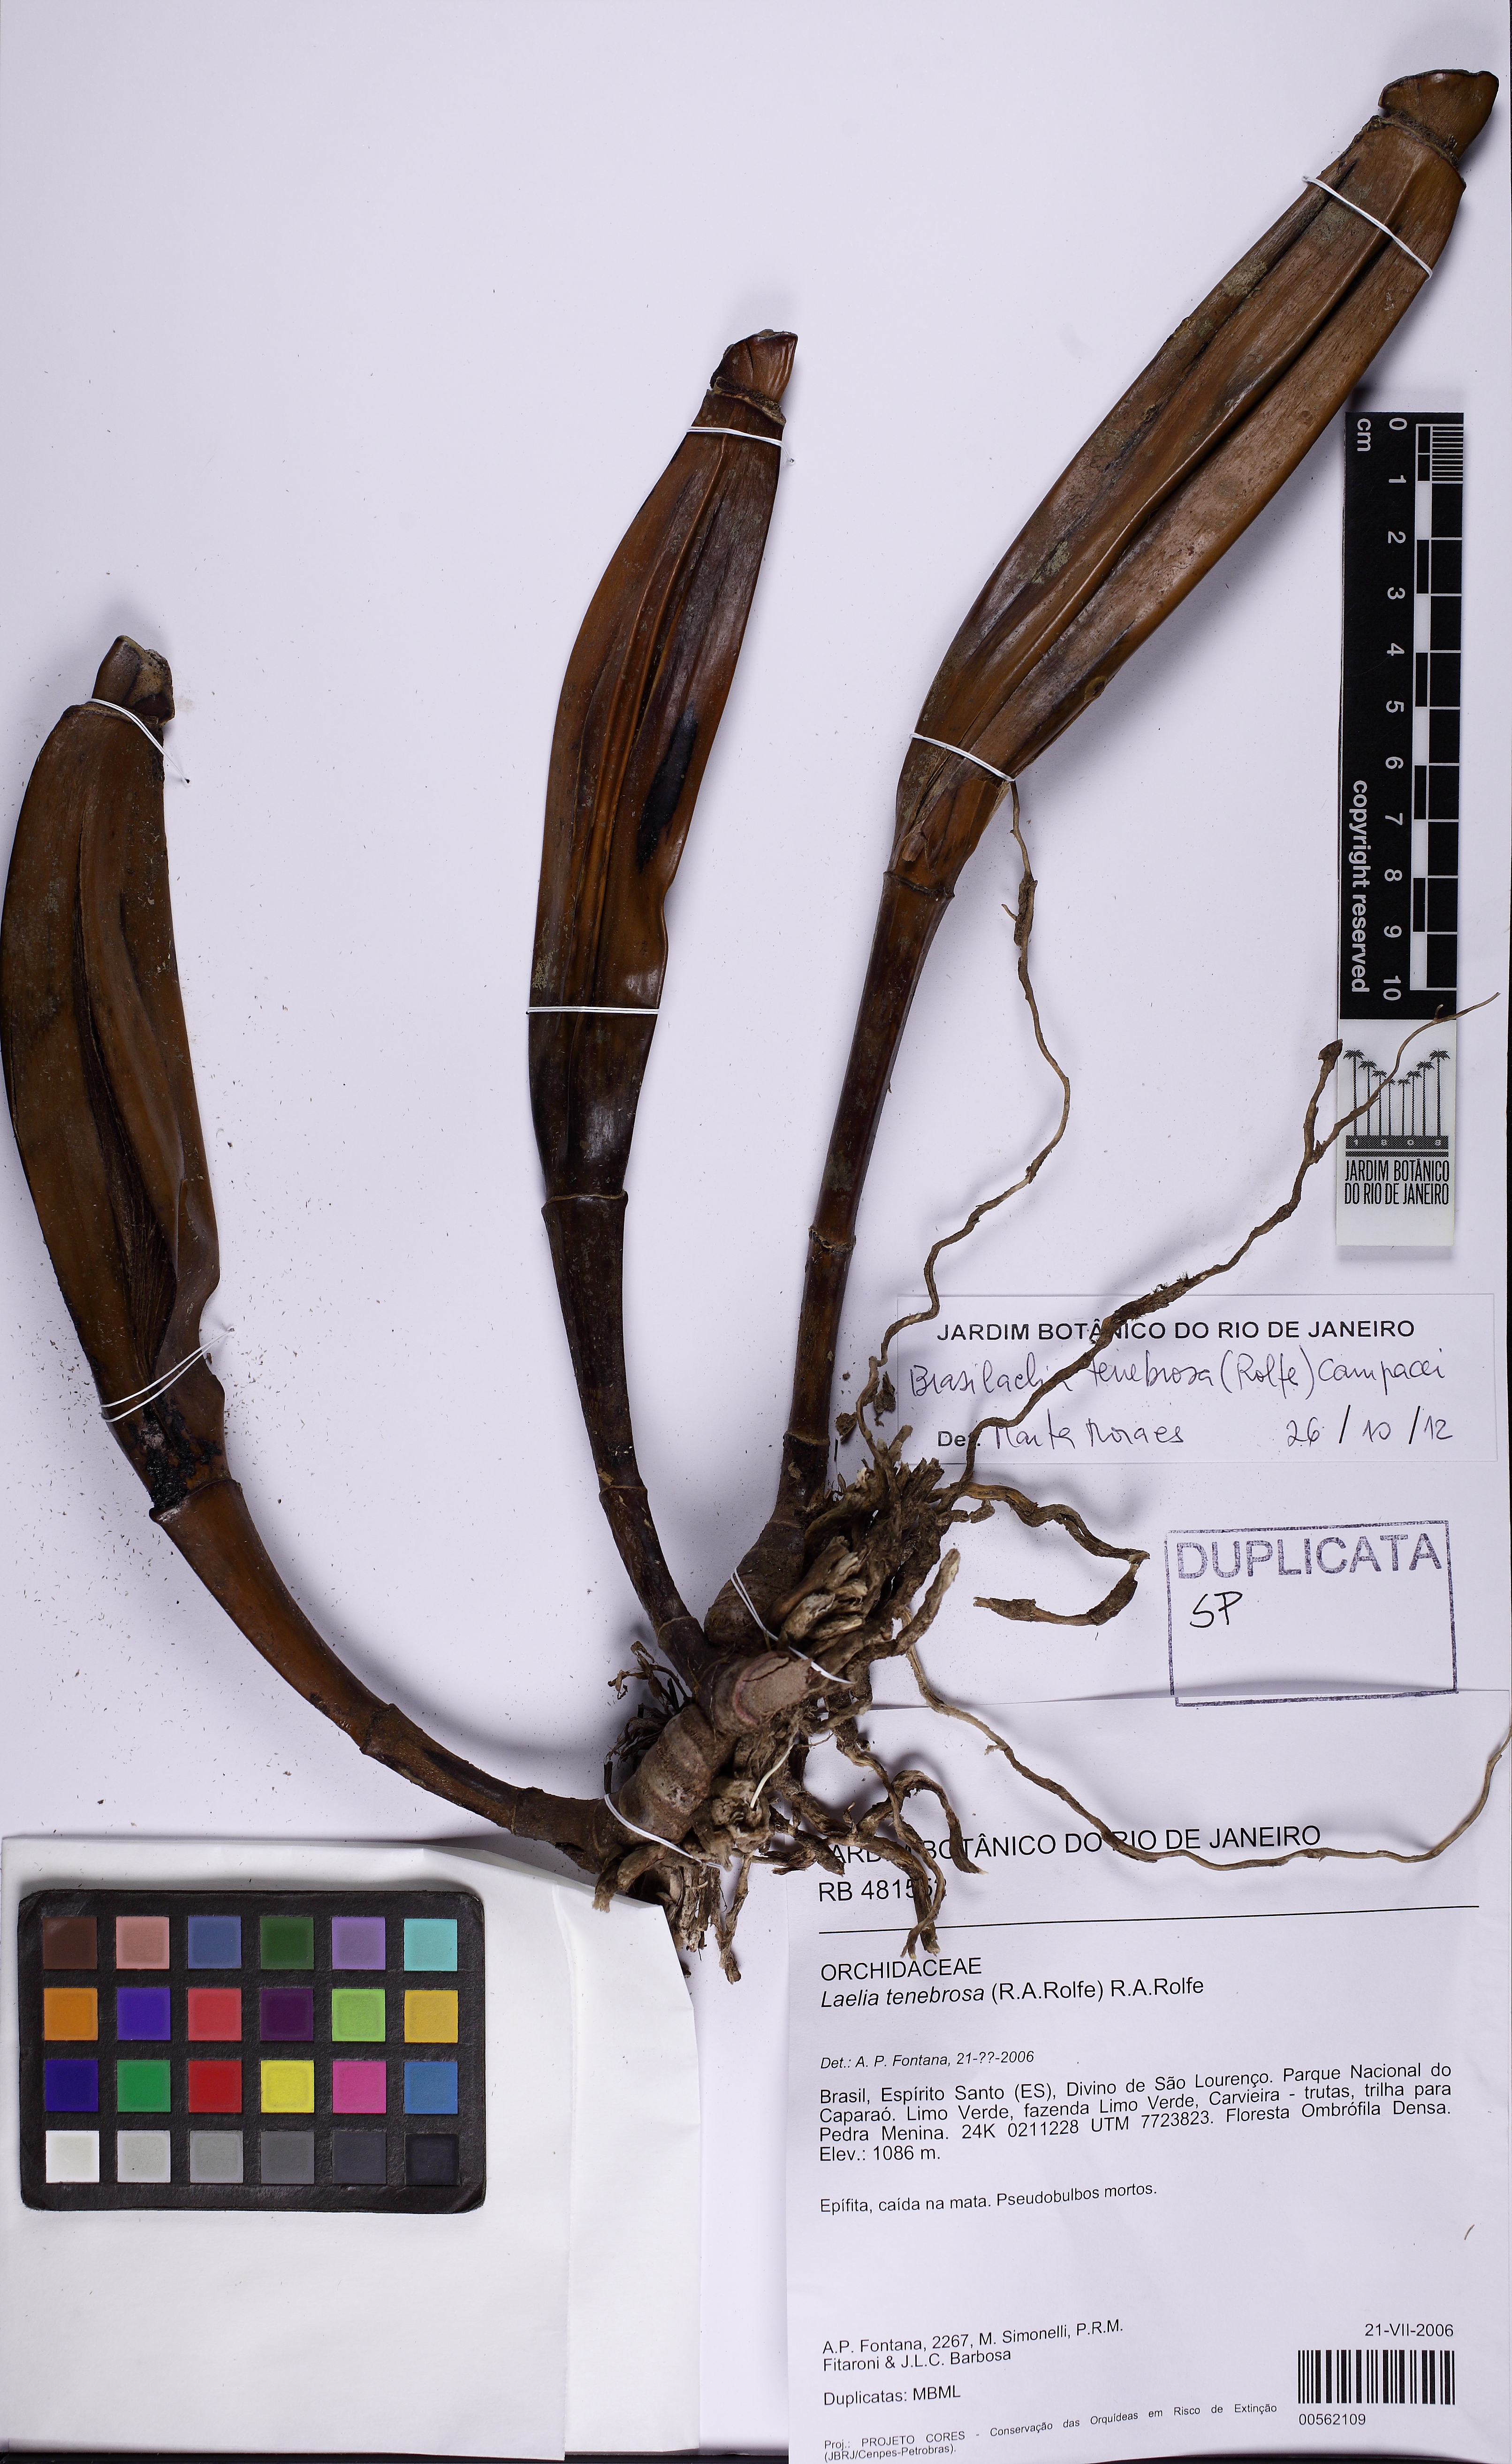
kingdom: Plantae
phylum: Tracheophyta
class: Liliopsida
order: Asparagales
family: Orchidaceae
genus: Cattleya
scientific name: Cattleya tenebrosa
